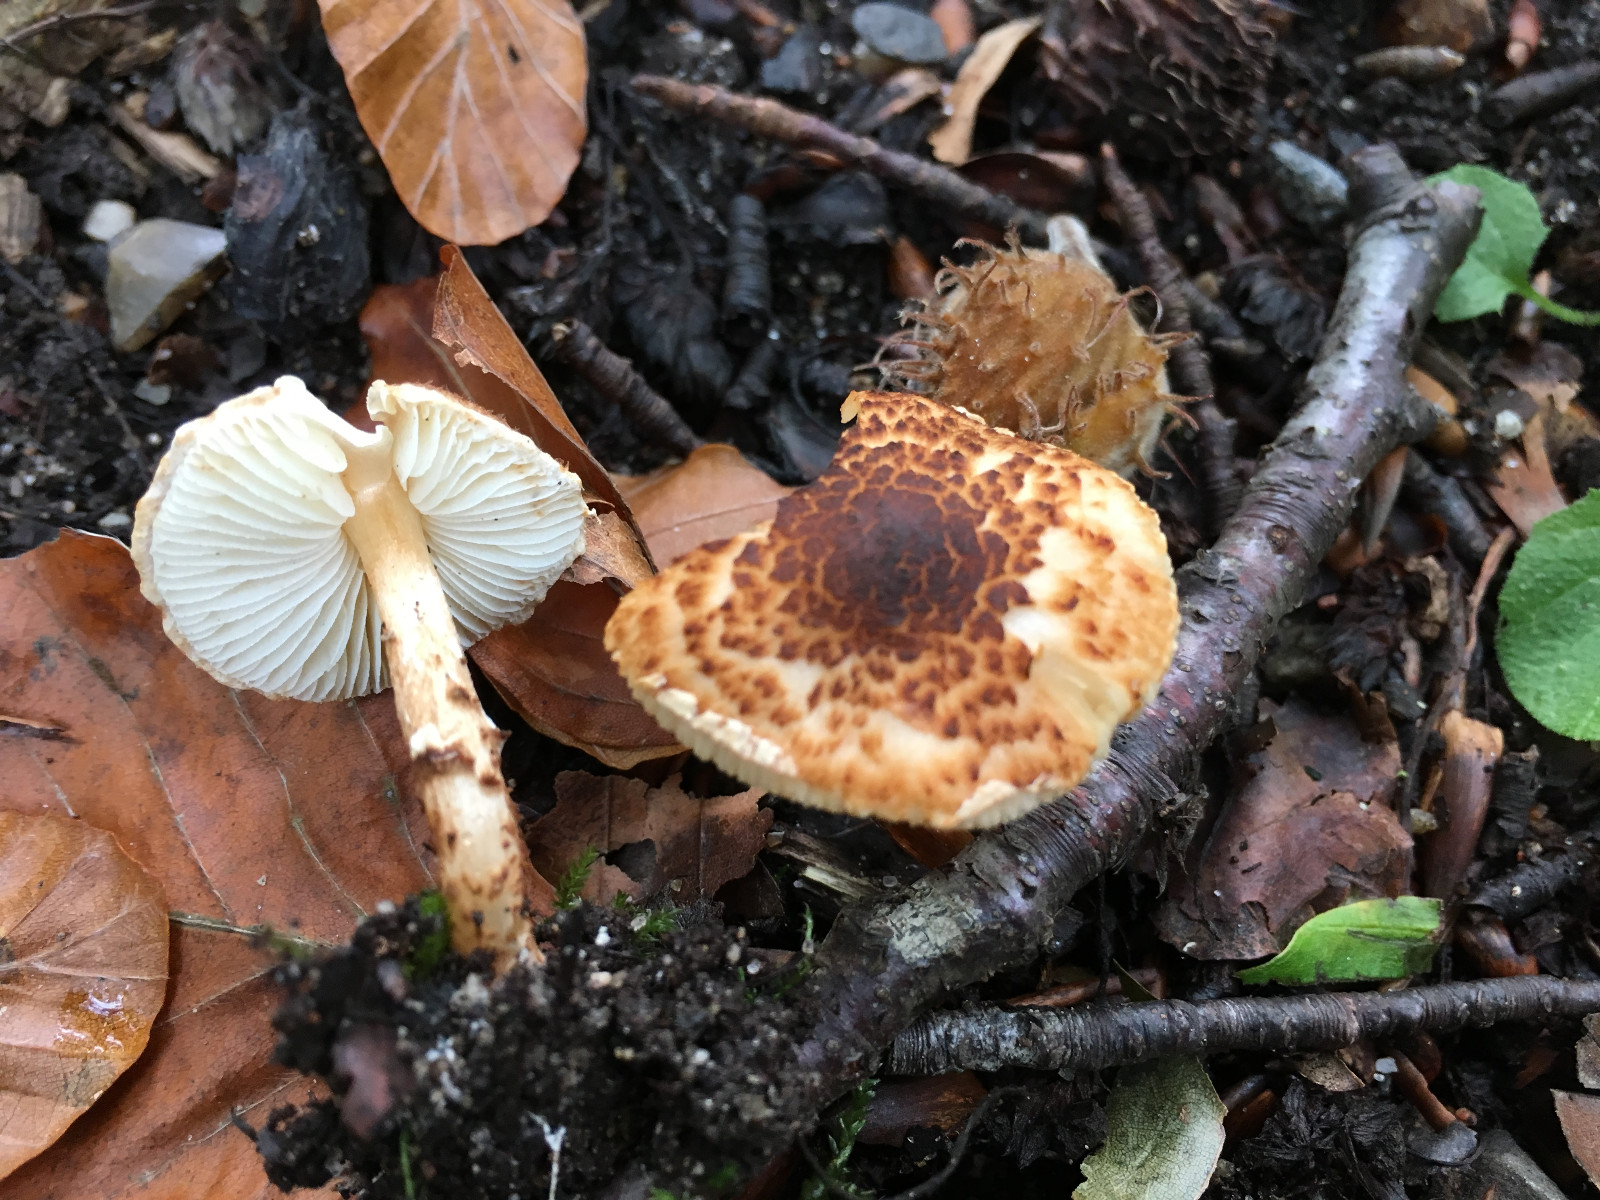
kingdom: Fungi
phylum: Basidiomycota
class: Agaricomycetes
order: Agaricales
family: Agaricaceae
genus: Lepiota
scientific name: Lepiota castanea
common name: kastaniebrun parasolhat
